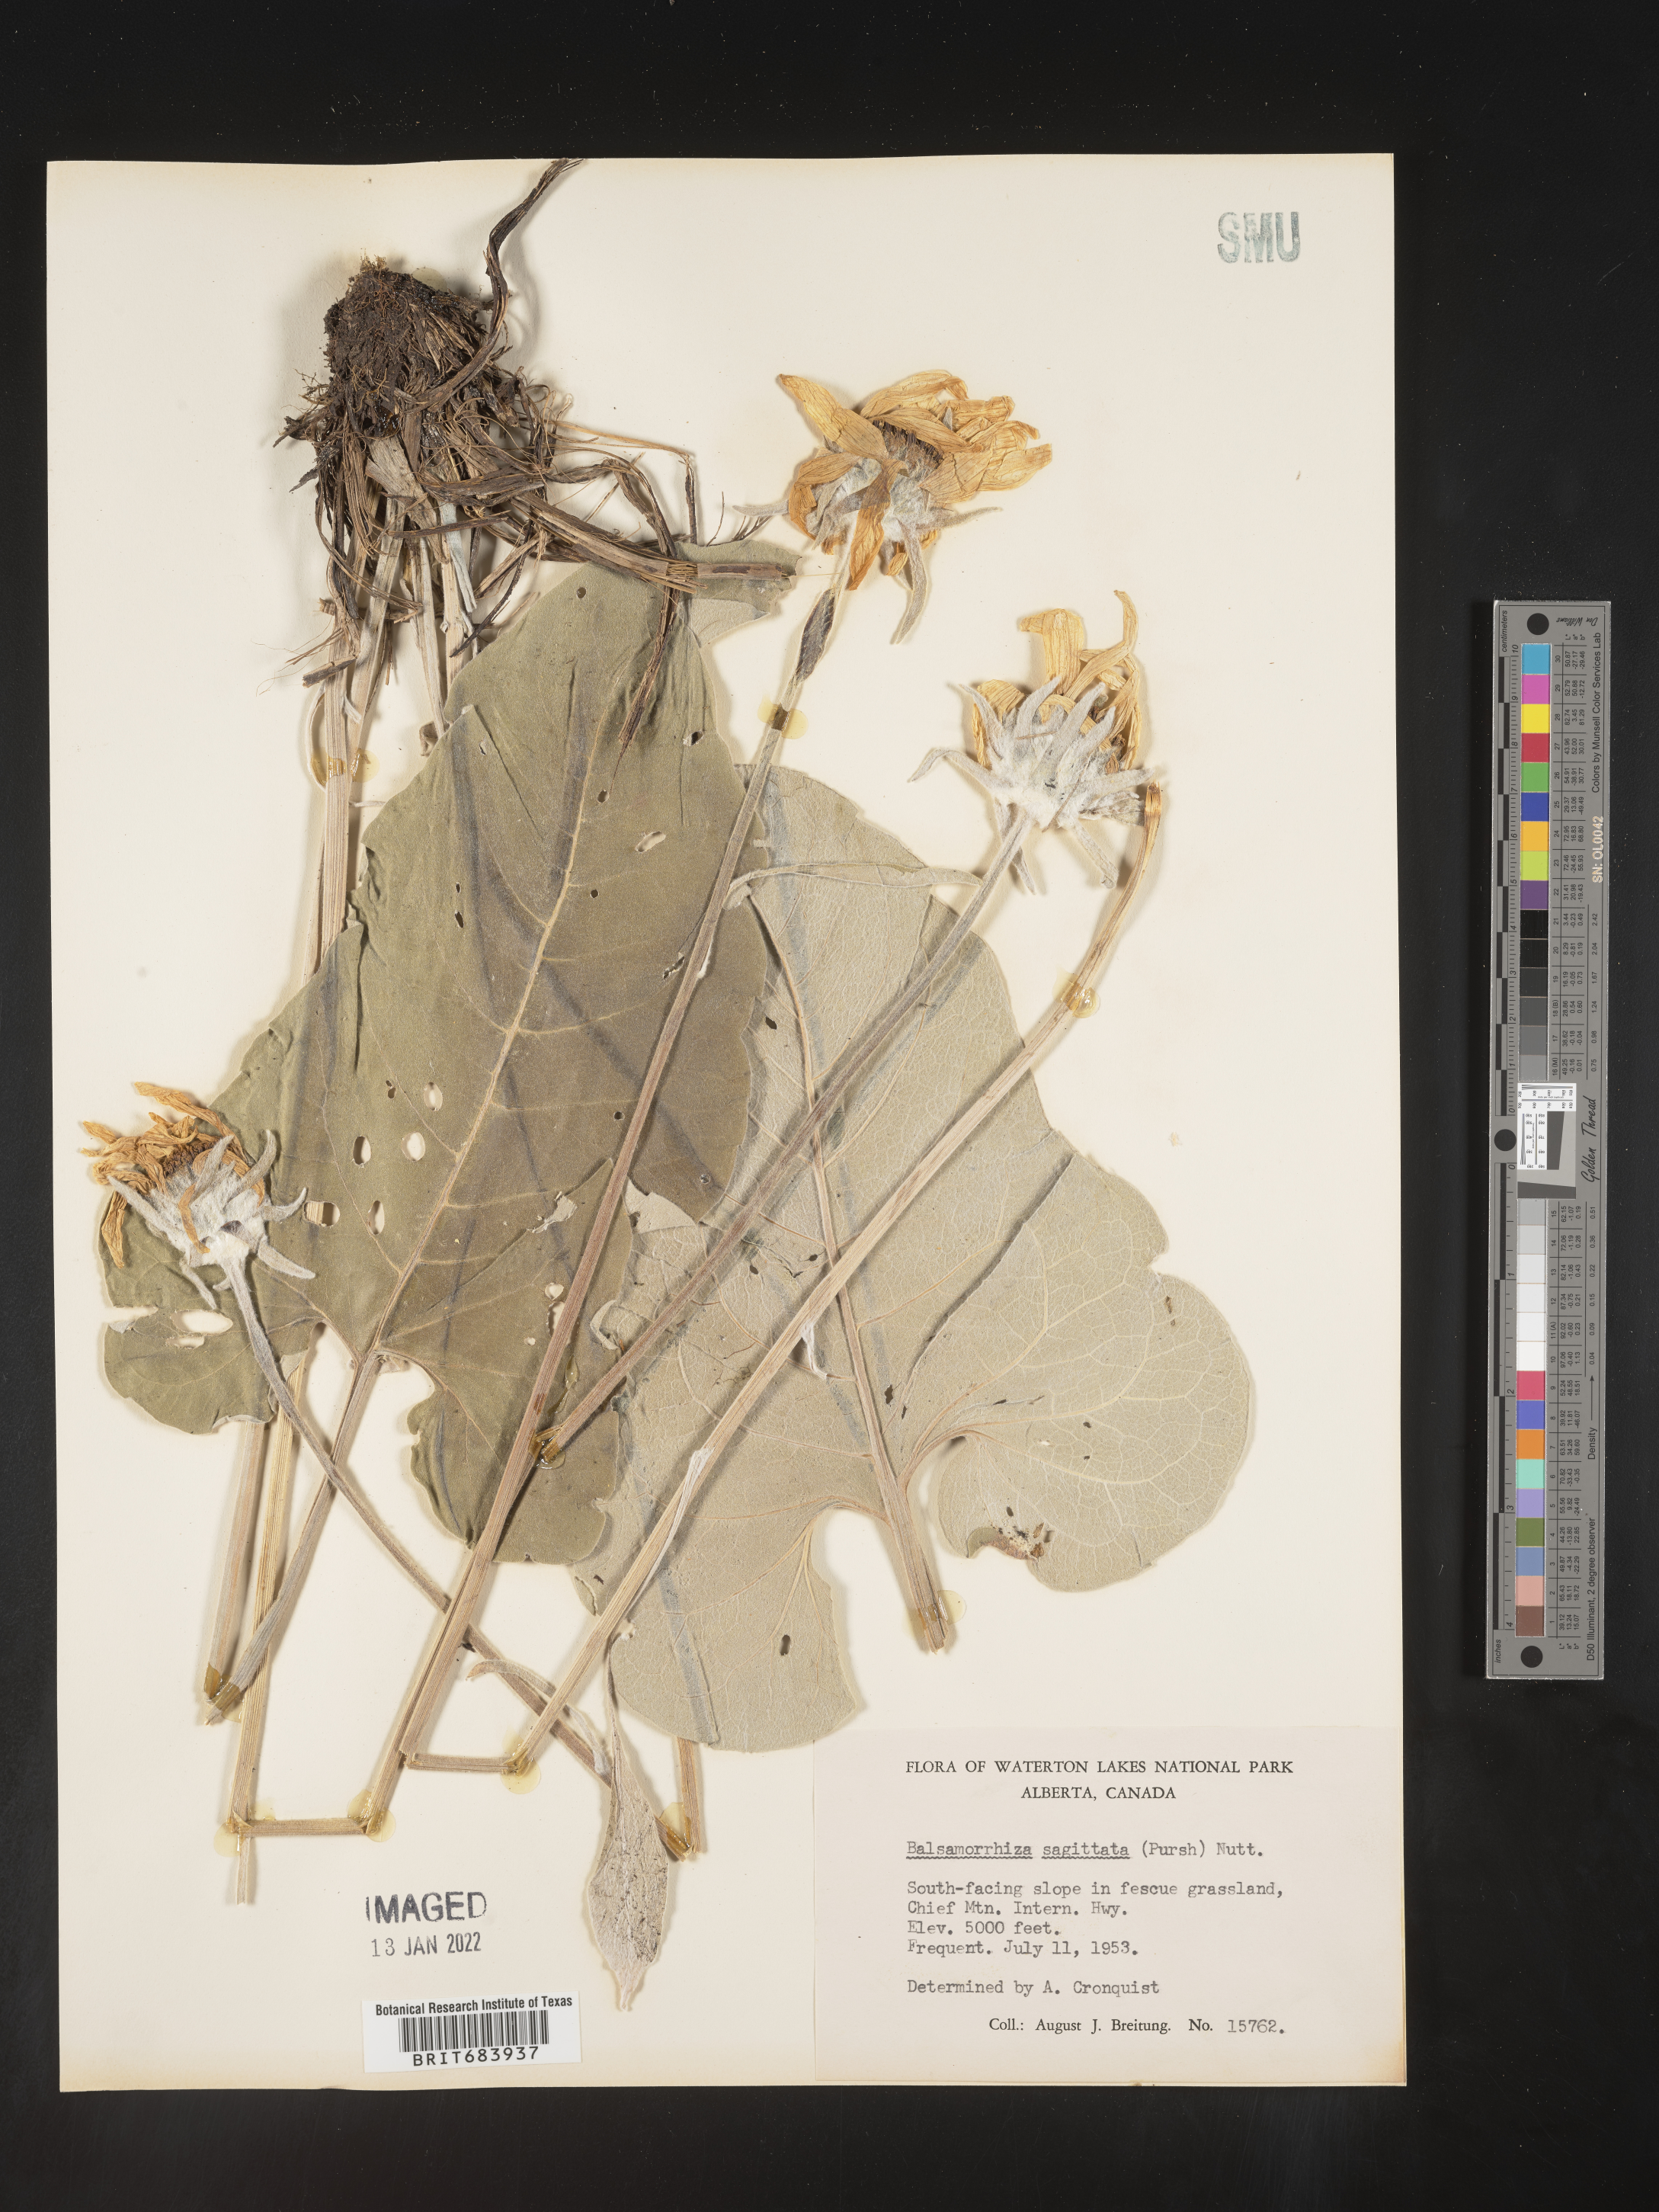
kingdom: Plantae
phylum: Tracheophyta
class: Magnoliopsida
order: Asterales
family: Asteraceae
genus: Wyethia
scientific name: Wyethia sagittata
